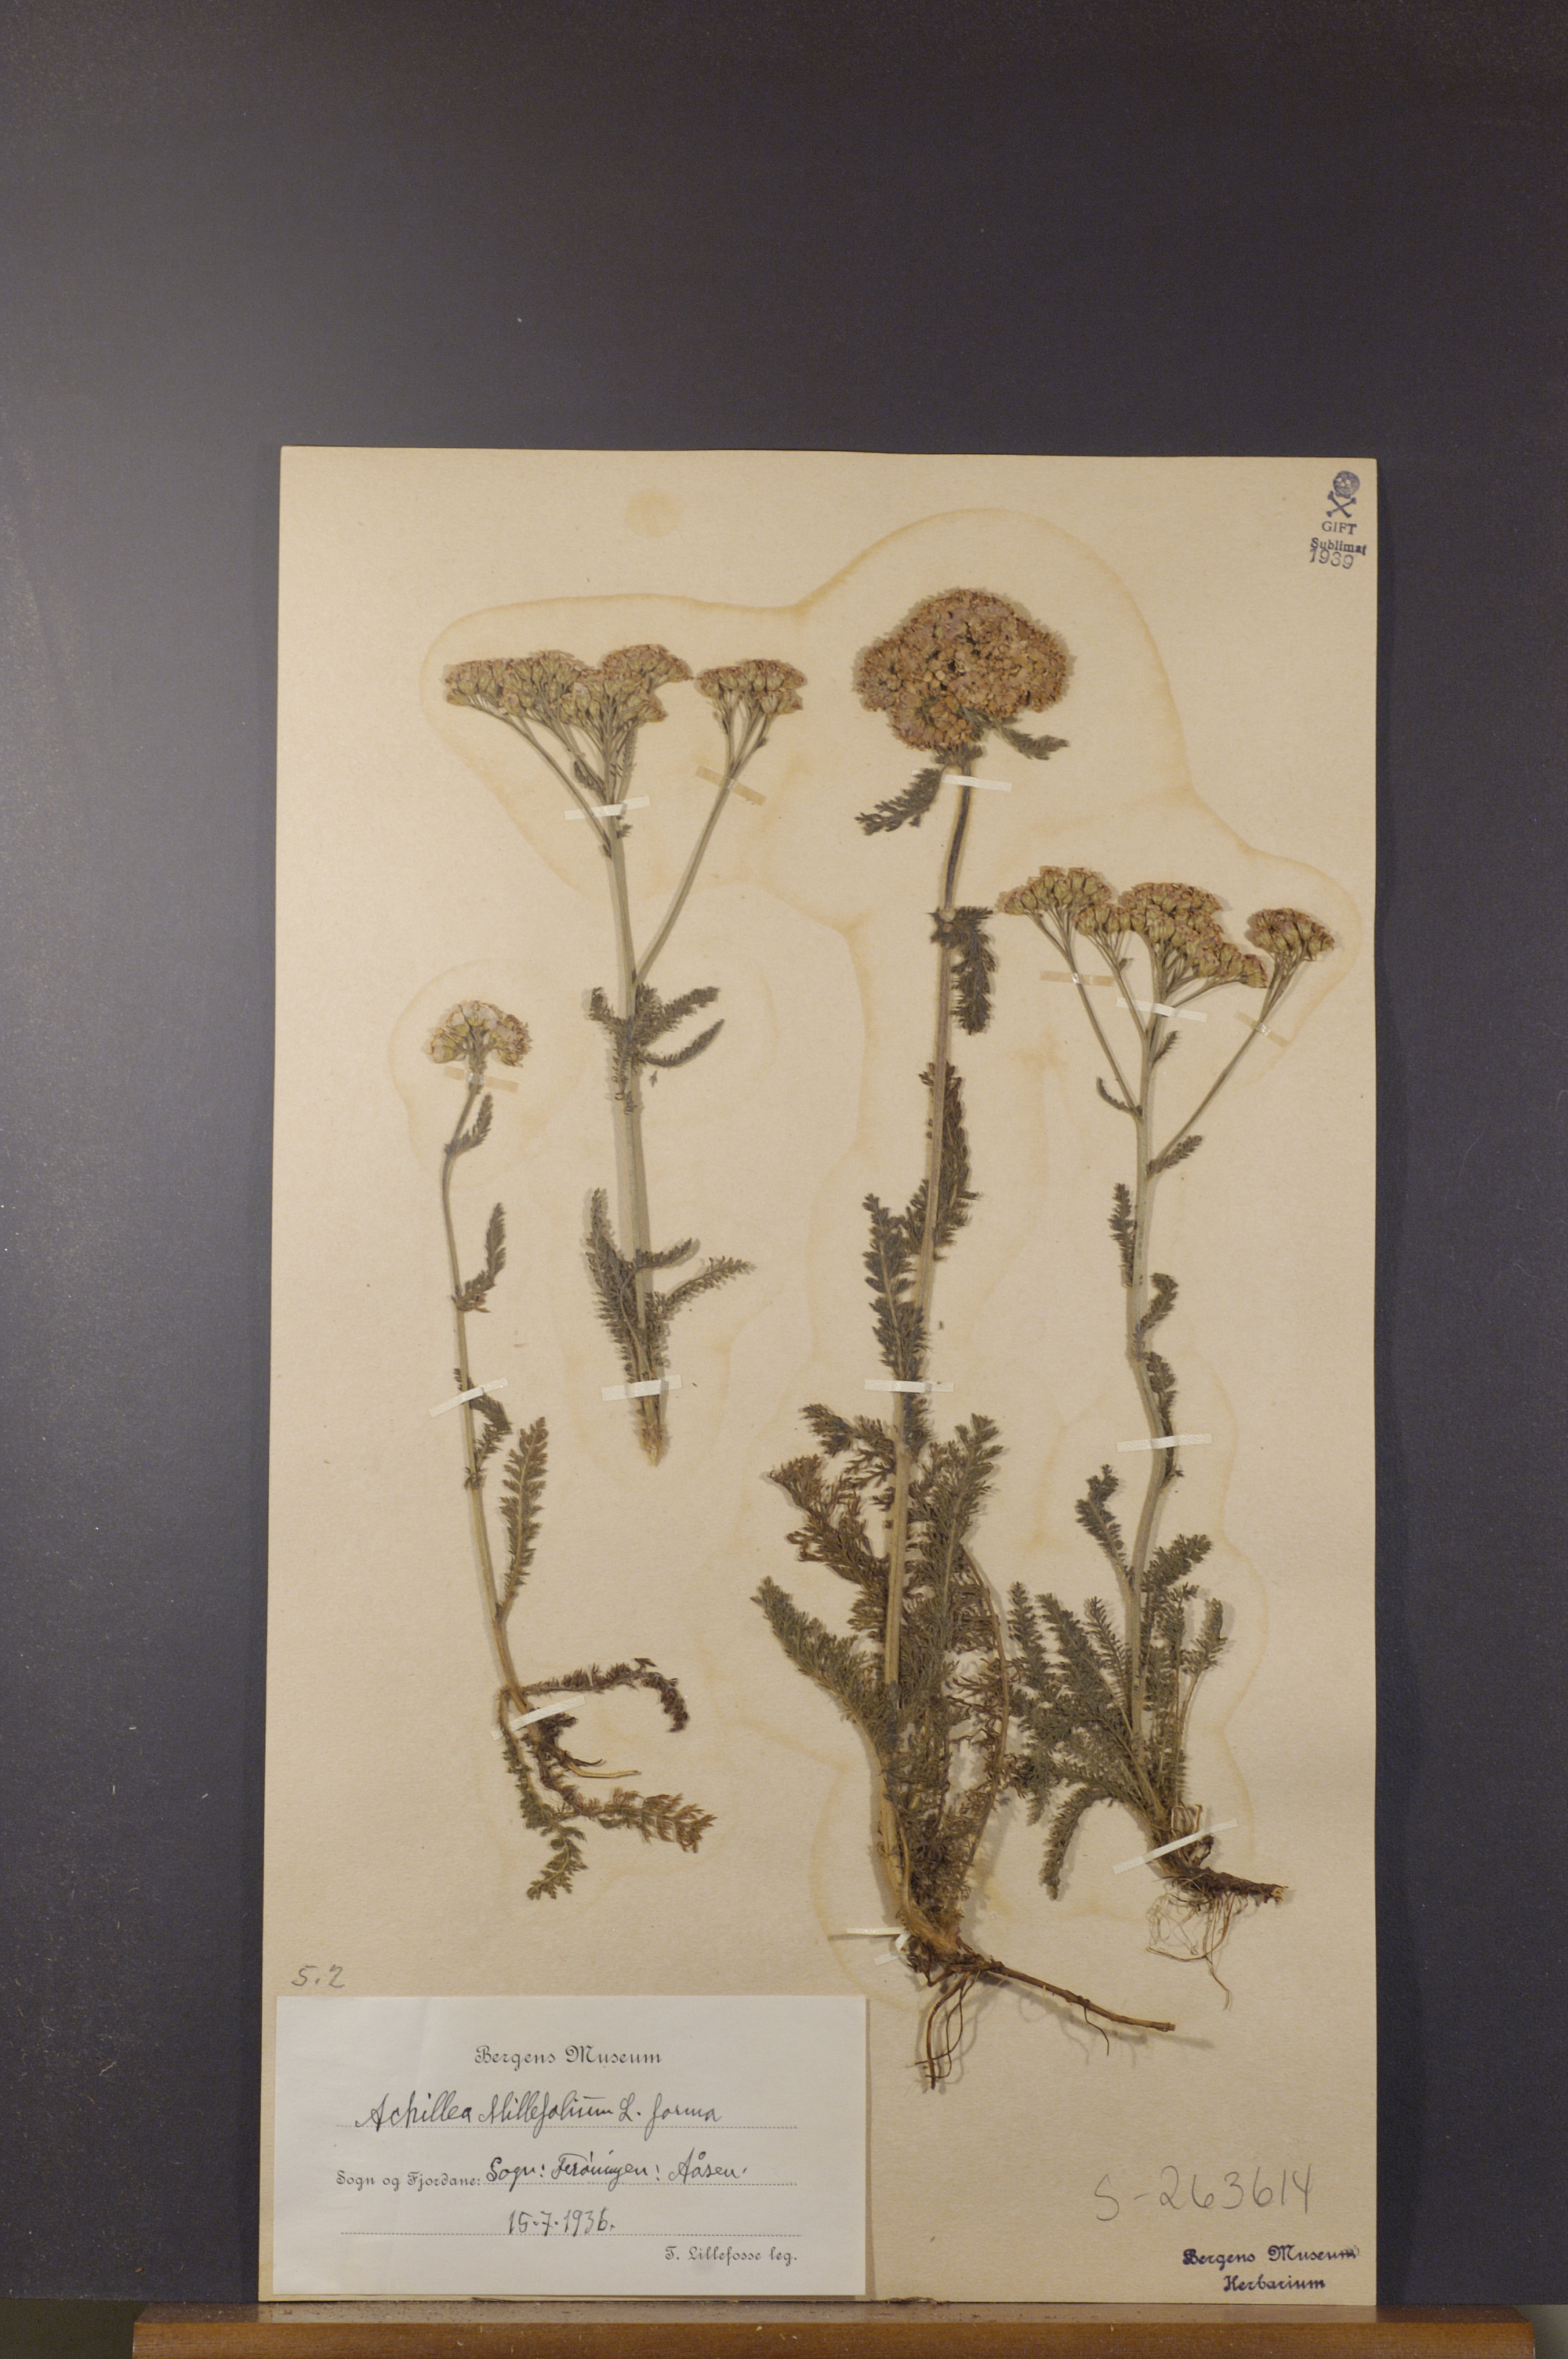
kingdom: Plantae
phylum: Tracheophyta
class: Magnoliopsida
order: Asterales
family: Asteraceae
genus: Achillea
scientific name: Achillea millefolium
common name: Yarrow
